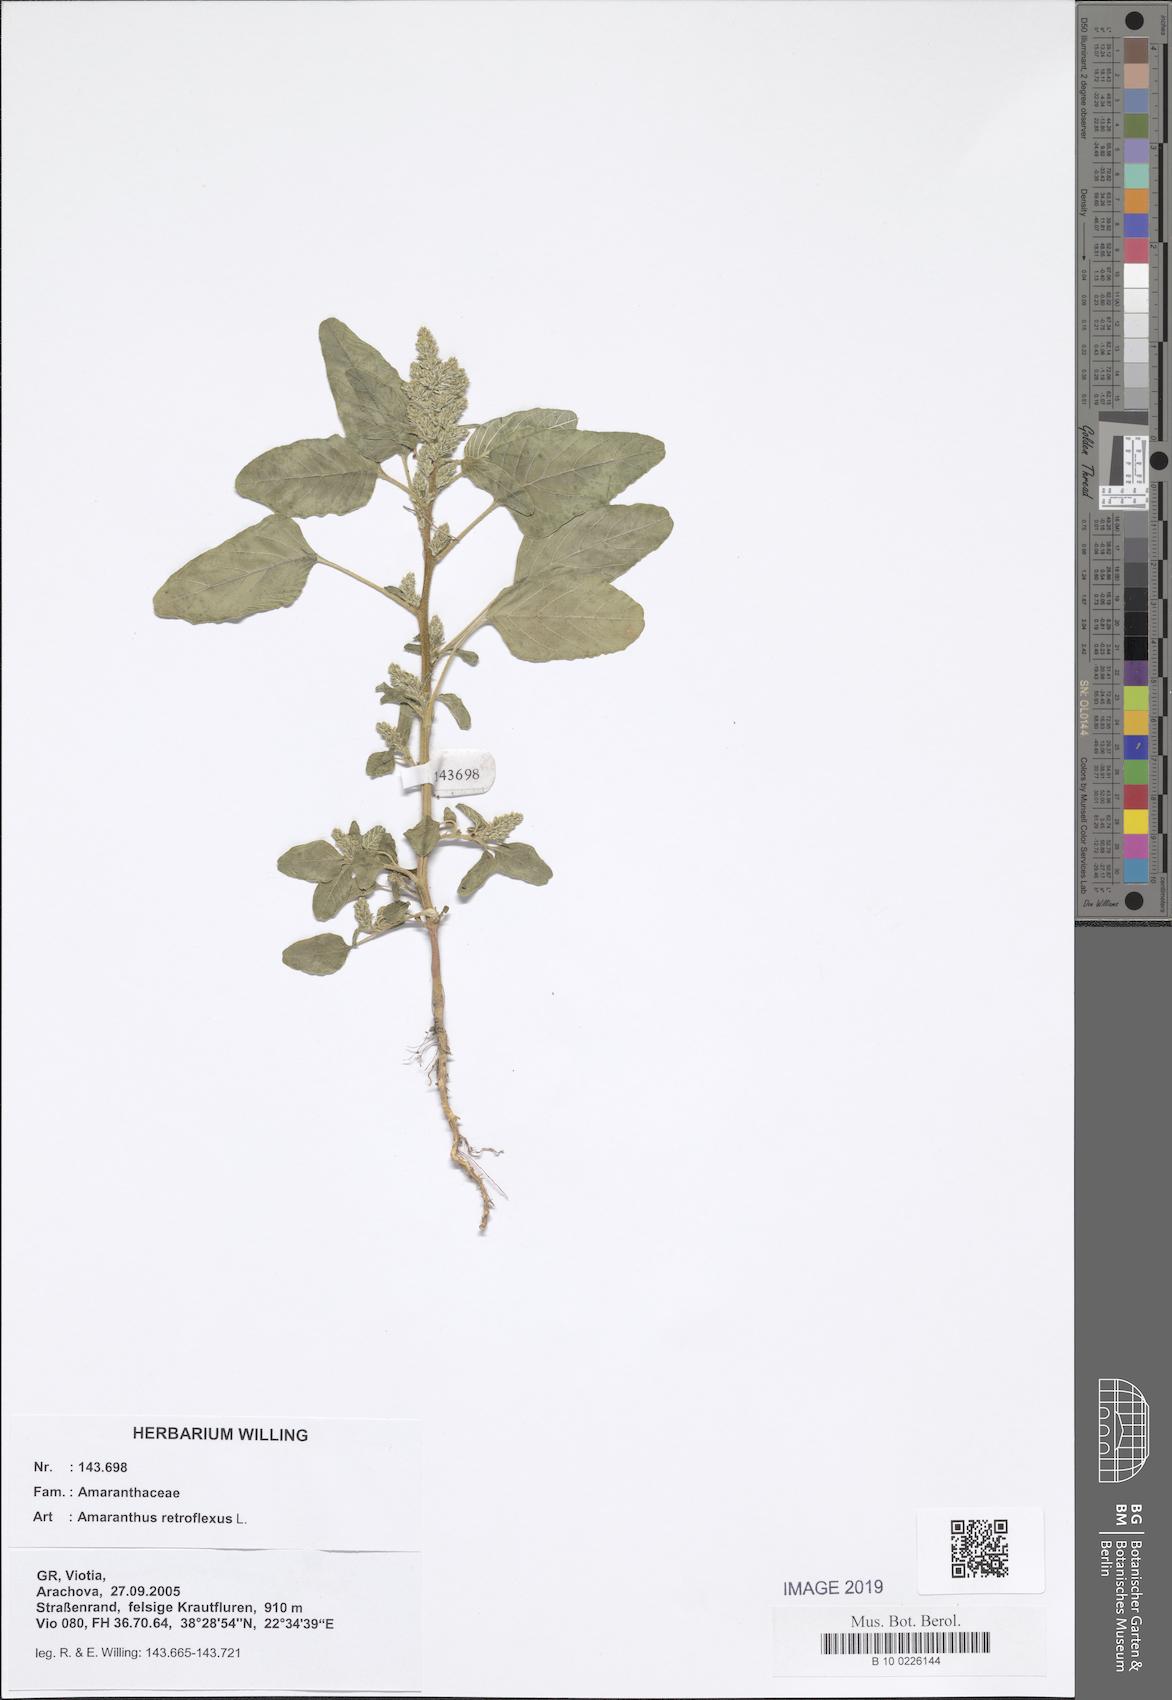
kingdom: Plantae
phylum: Tracheophyta
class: Magnoliopsida
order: Caryophyllales
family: Amaranthaceae
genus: Amaranthus
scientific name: Amaranthus retroflexus
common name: Redroot amaranth
